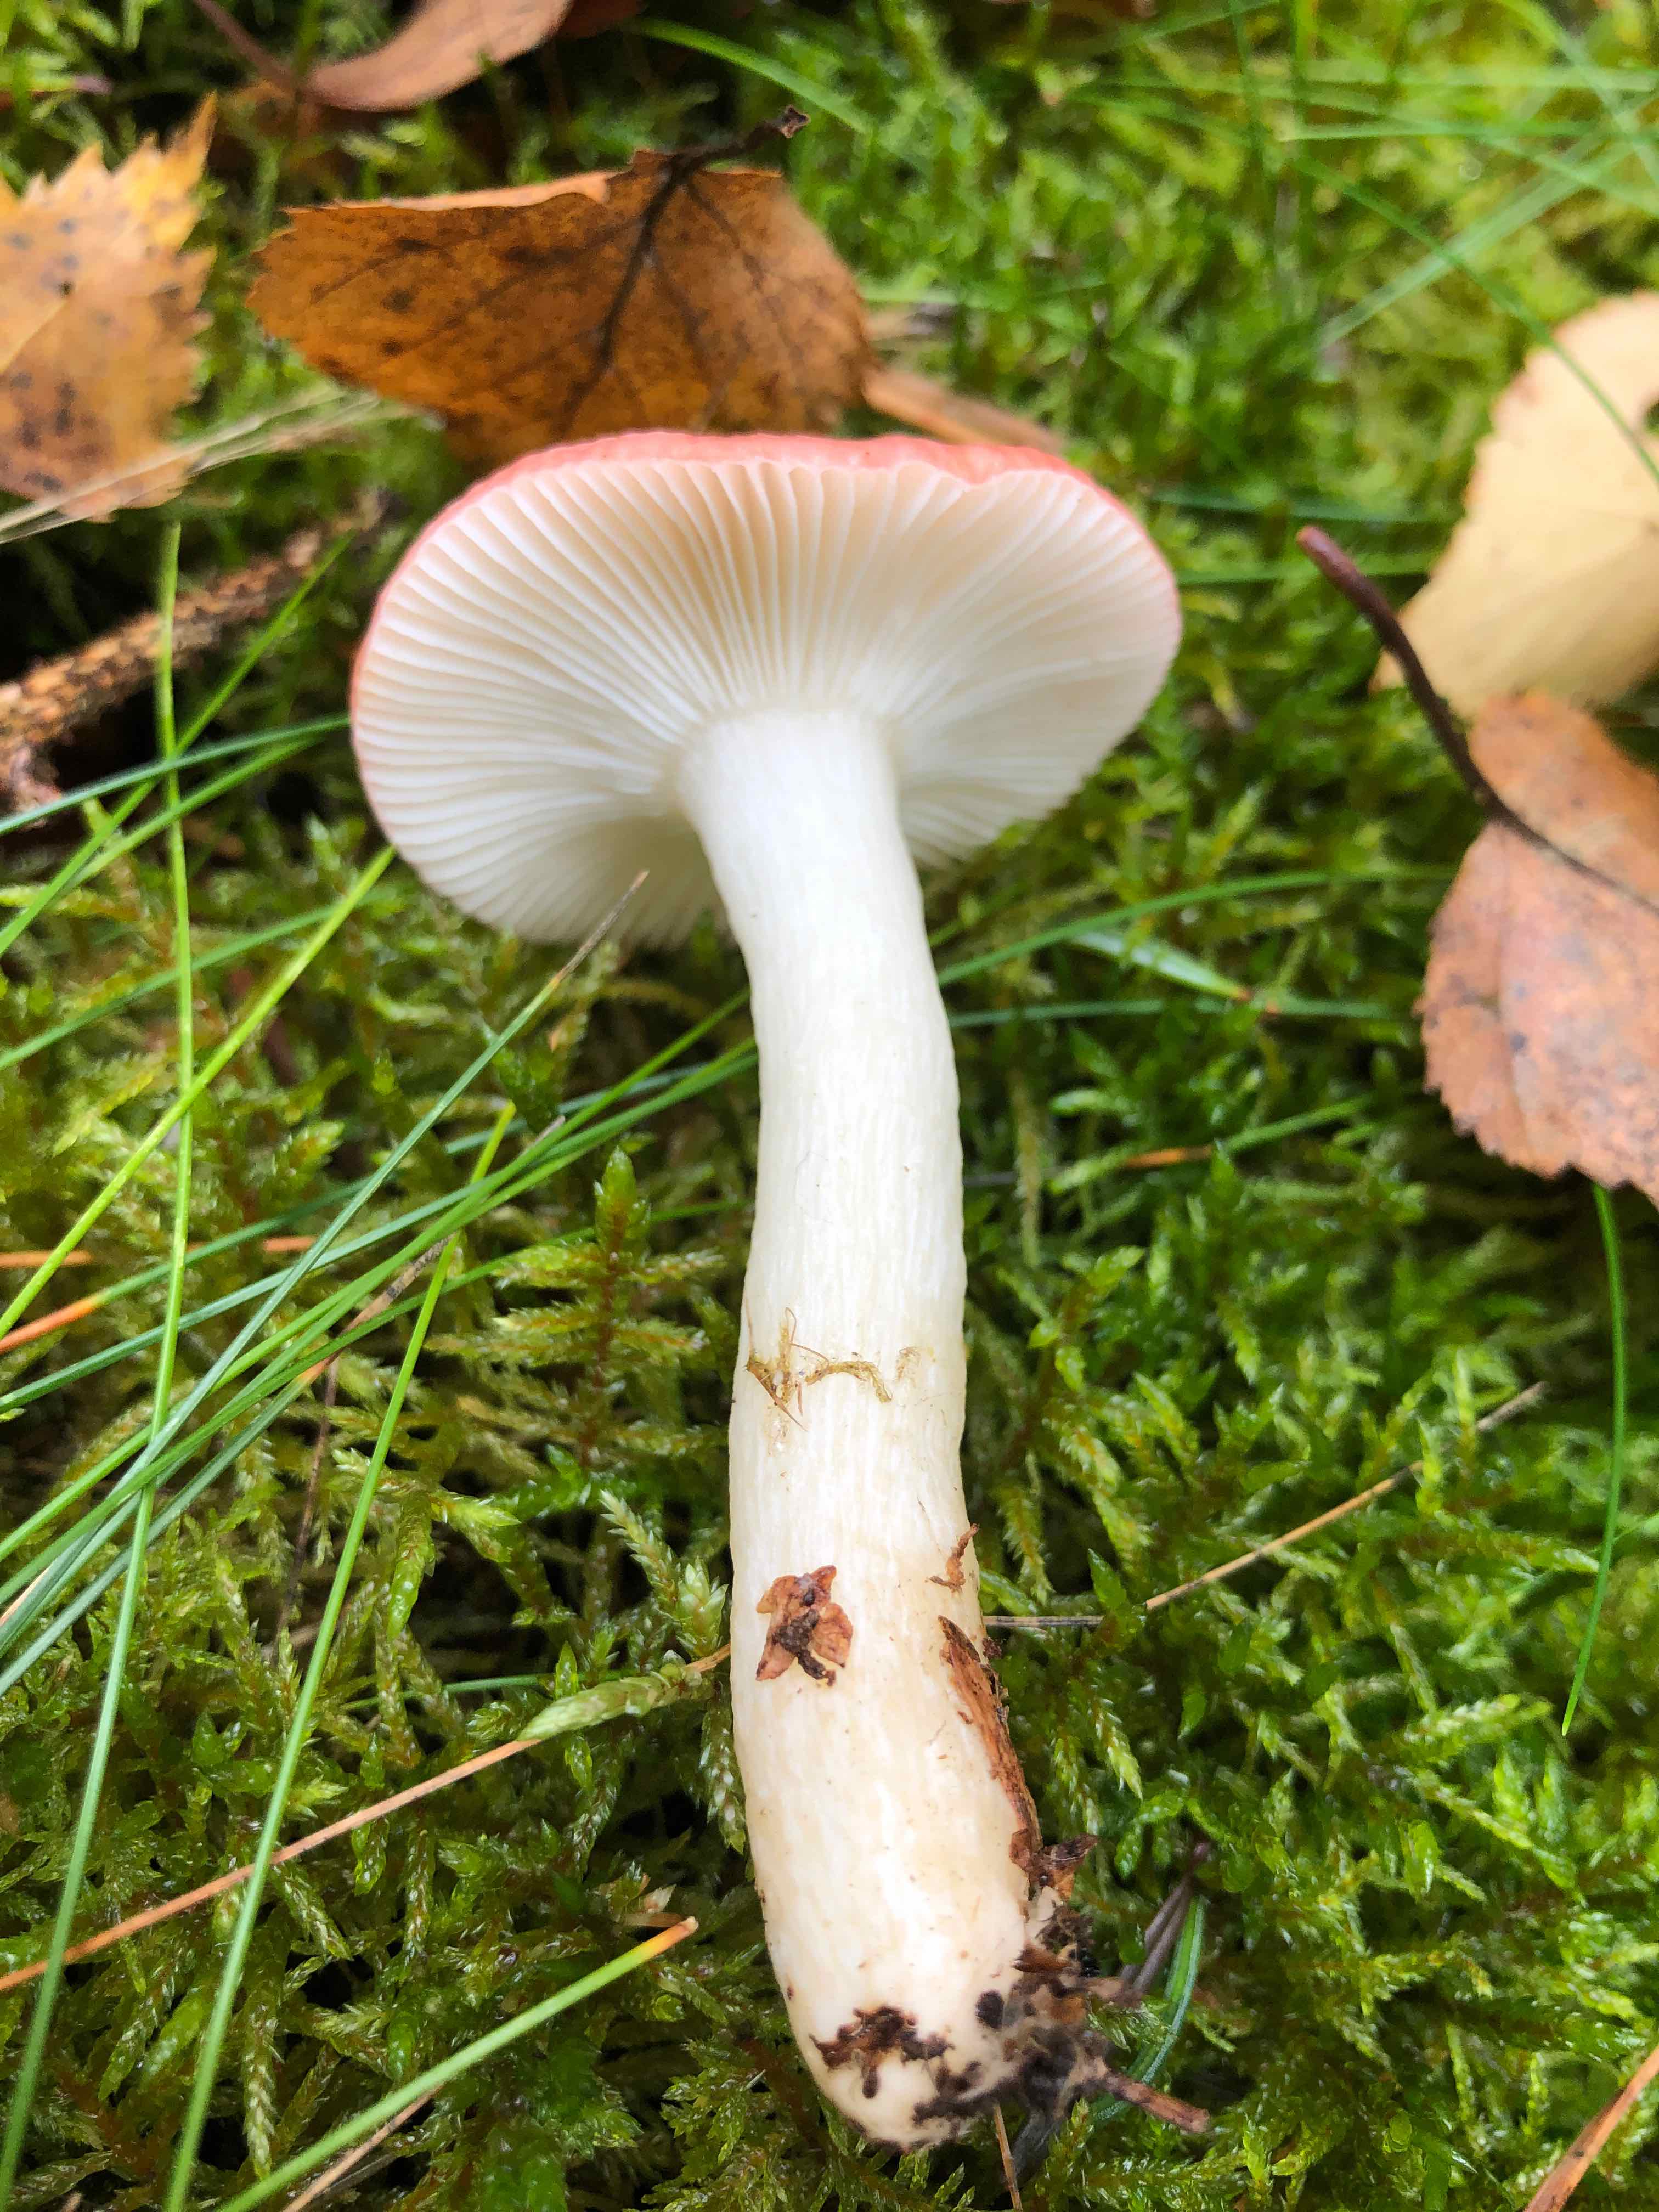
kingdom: Fungi
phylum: Basidiomycota
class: Agaricomycetes
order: Russulales
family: Russulaceae
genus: Russula
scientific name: Russula betularum
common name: bleg gift-skørhat
